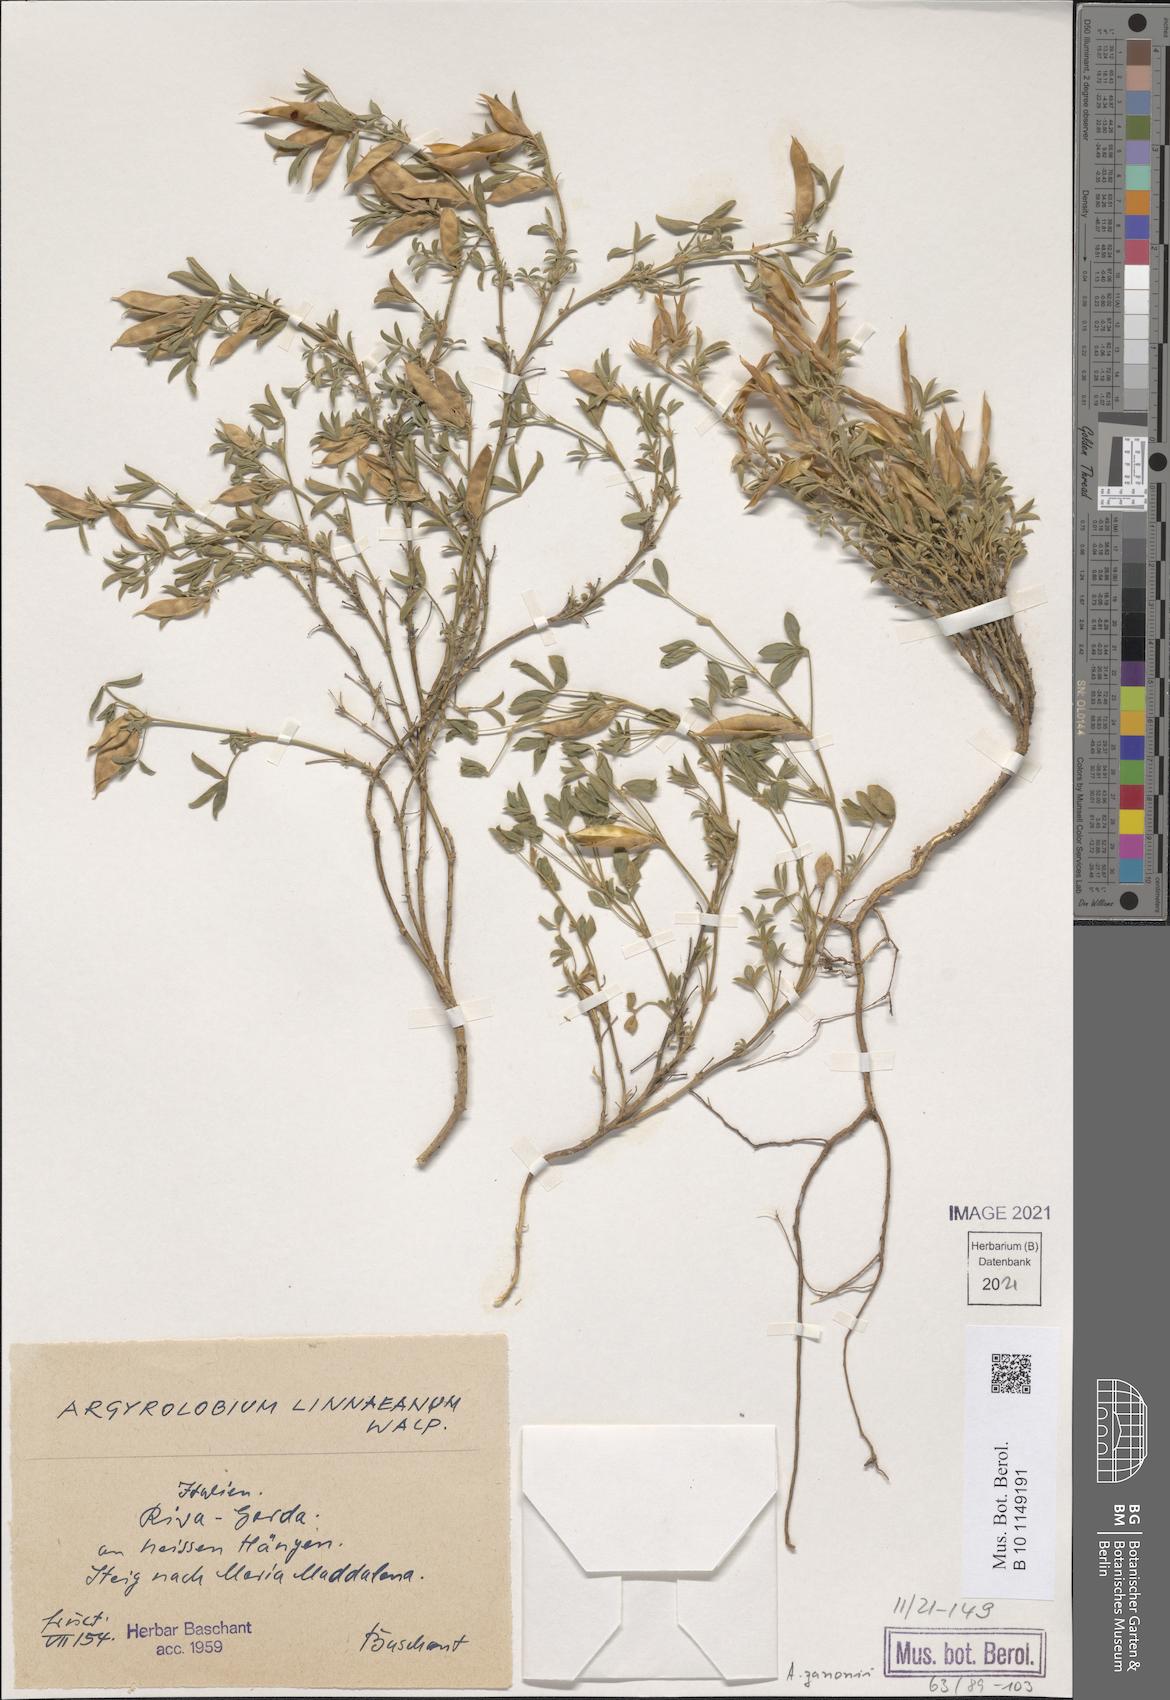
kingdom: Plantae
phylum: Tracheophyta
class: Magnoliopsida
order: Fabales
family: Fabaceae
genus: Argyrolobium
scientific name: Argyrolobium zanonii
